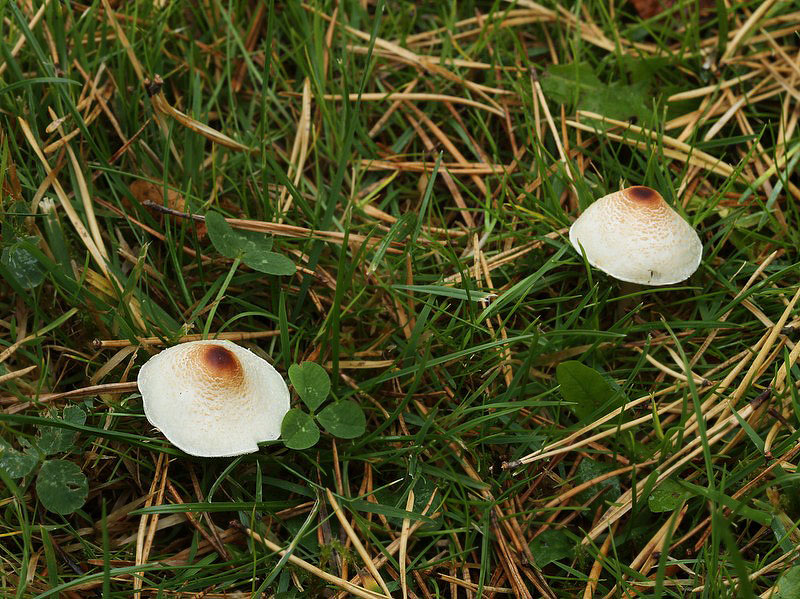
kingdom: Fungi
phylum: Basidiomycota
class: Agaricomycetes
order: Agaricales
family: Agaricaceae
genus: Lepiota
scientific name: Lepiota cristata
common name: stinkende parasolhat
